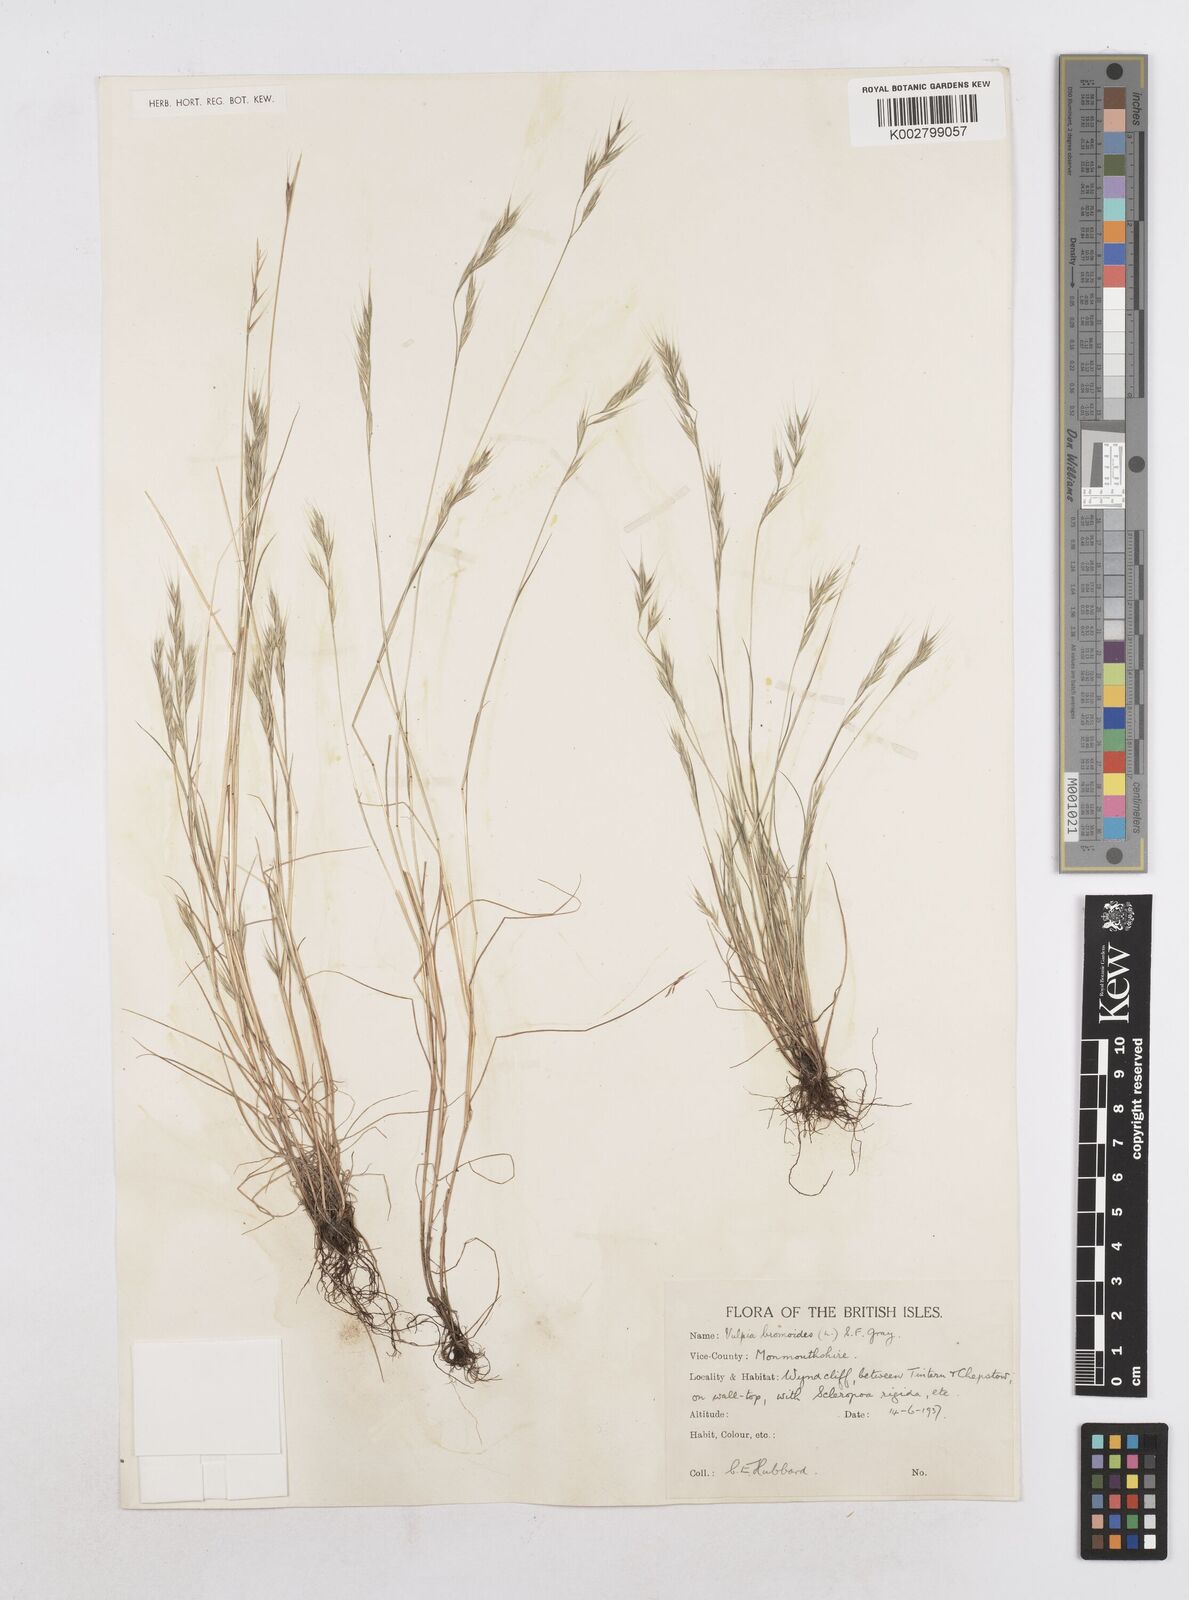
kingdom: Plantae
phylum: Tracheophyta
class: Liliopsida
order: Poales
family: Poaceae
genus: Festuca
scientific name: Festuca bromoides
